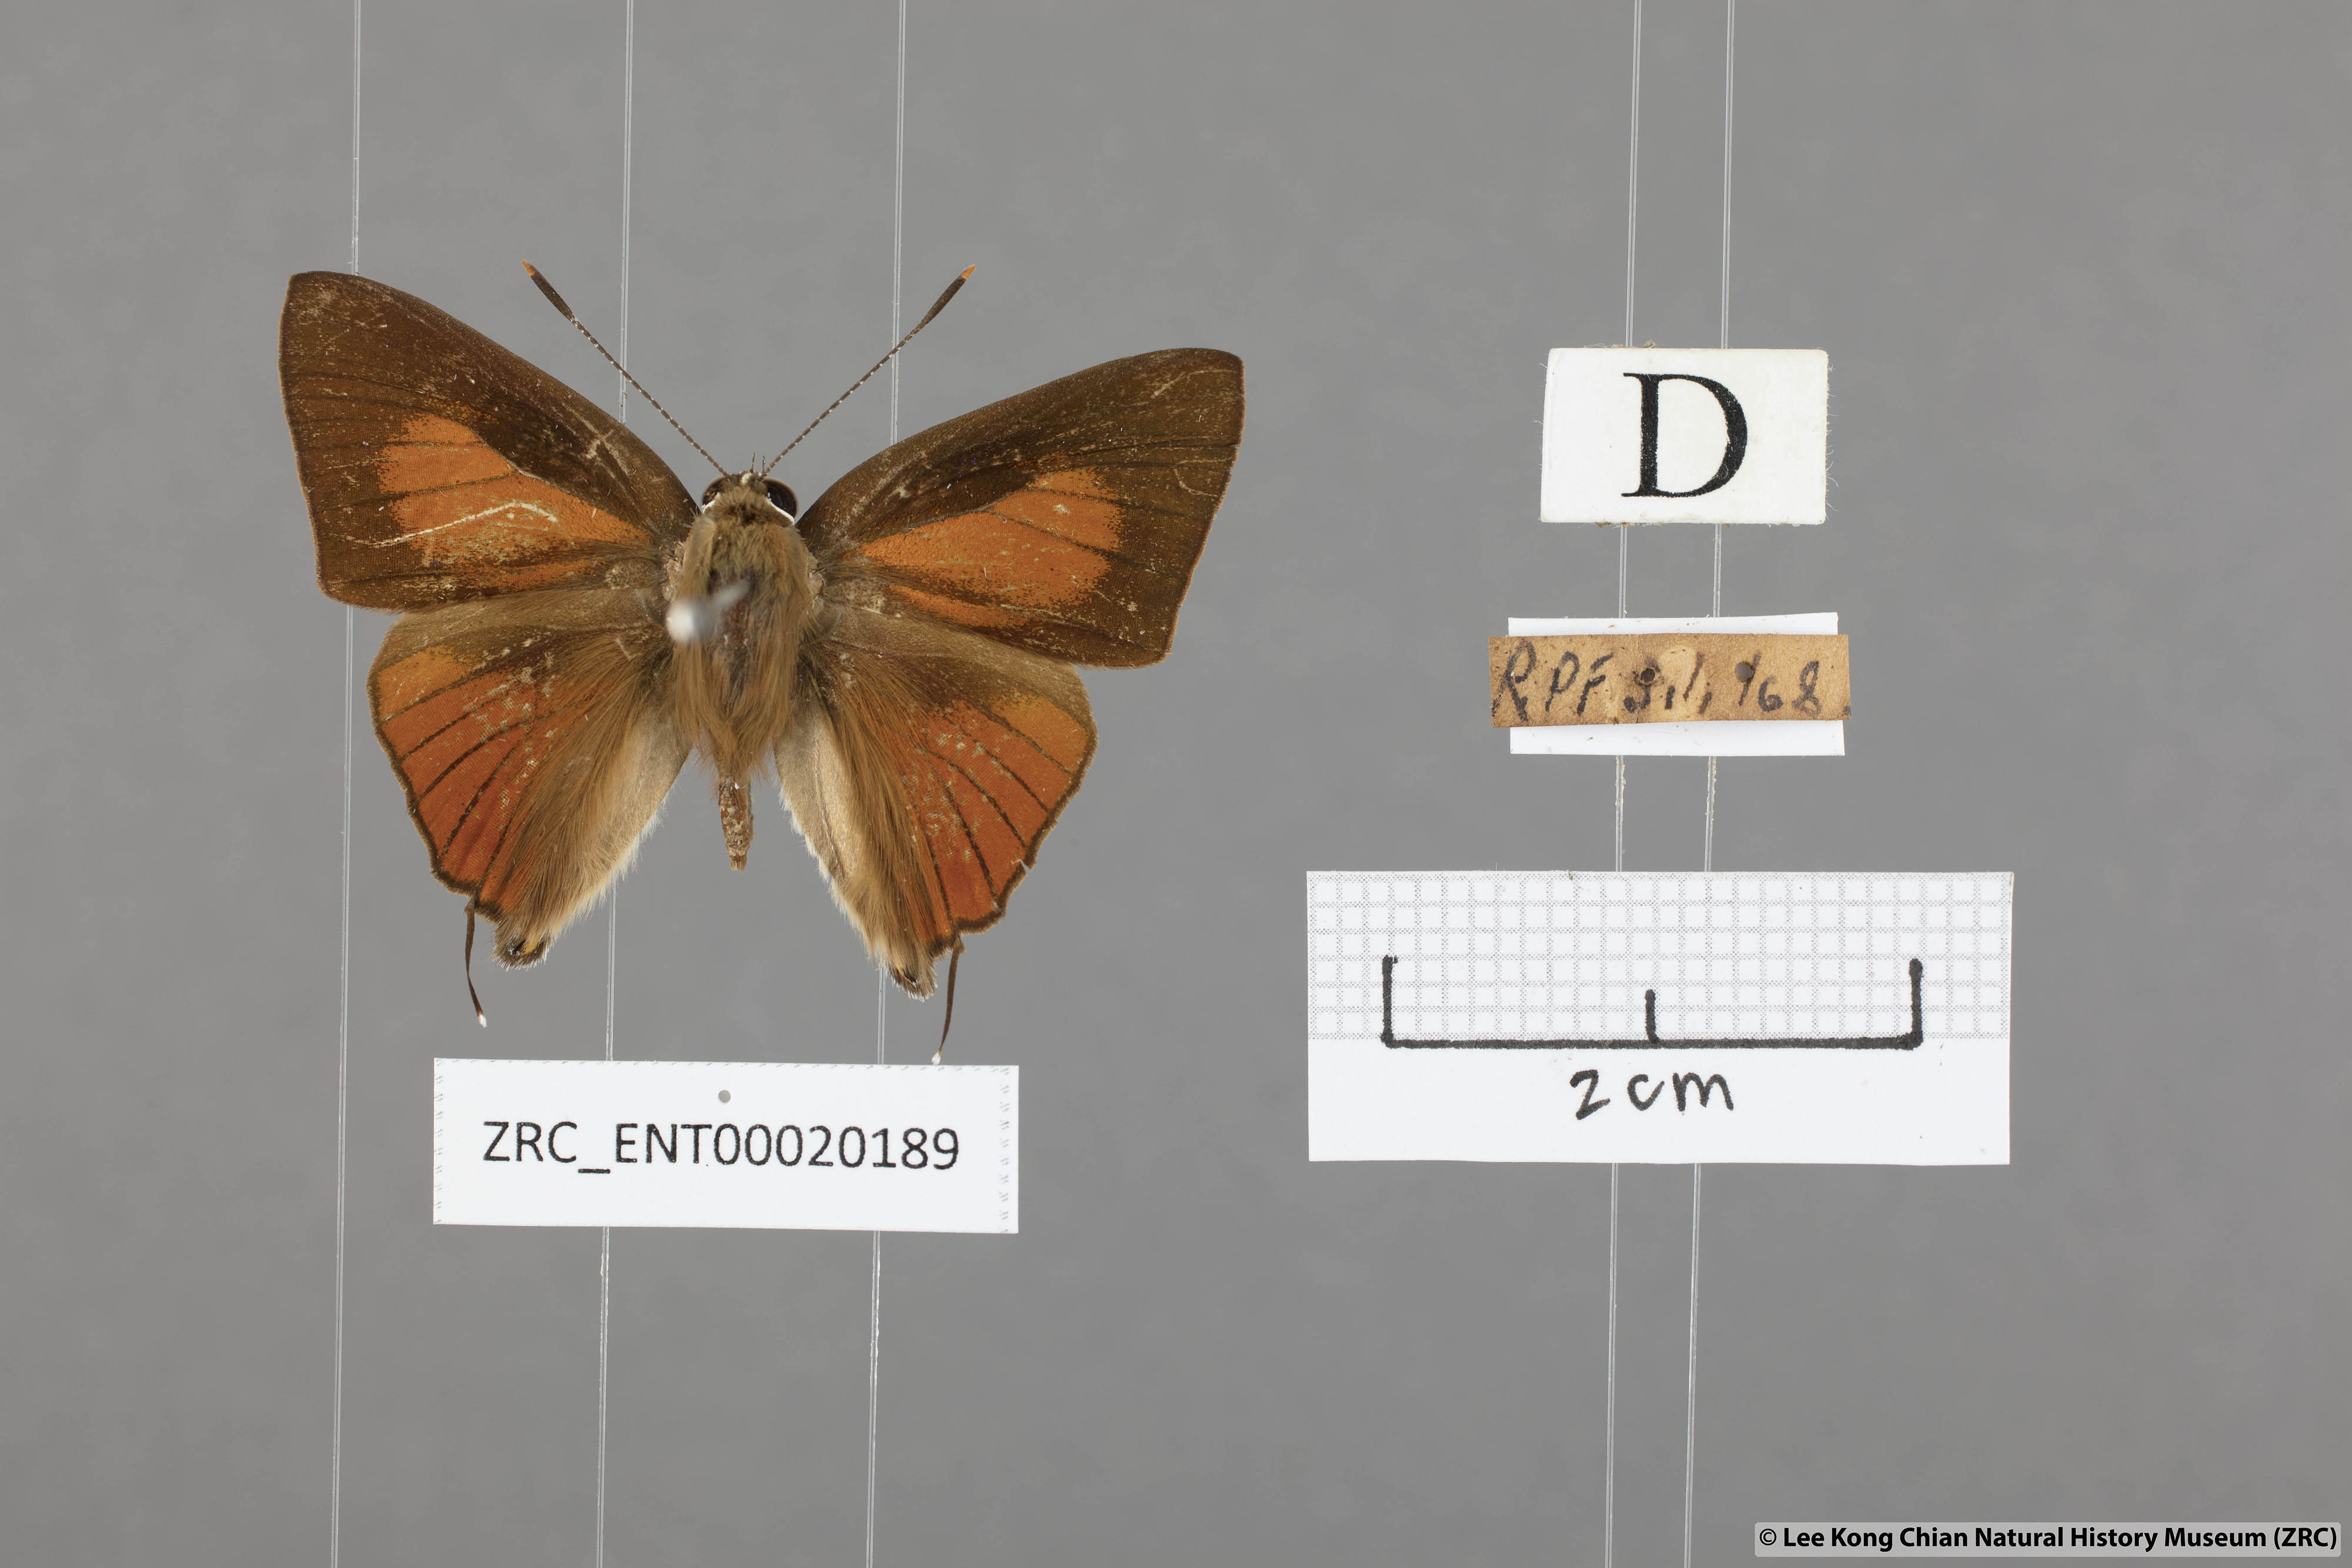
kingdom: Animalia
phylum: Arthropoda
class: Insecta
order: Lepidoptera
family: Lycaenidae
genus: Deudorix
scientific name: Deudorix epijarbas
